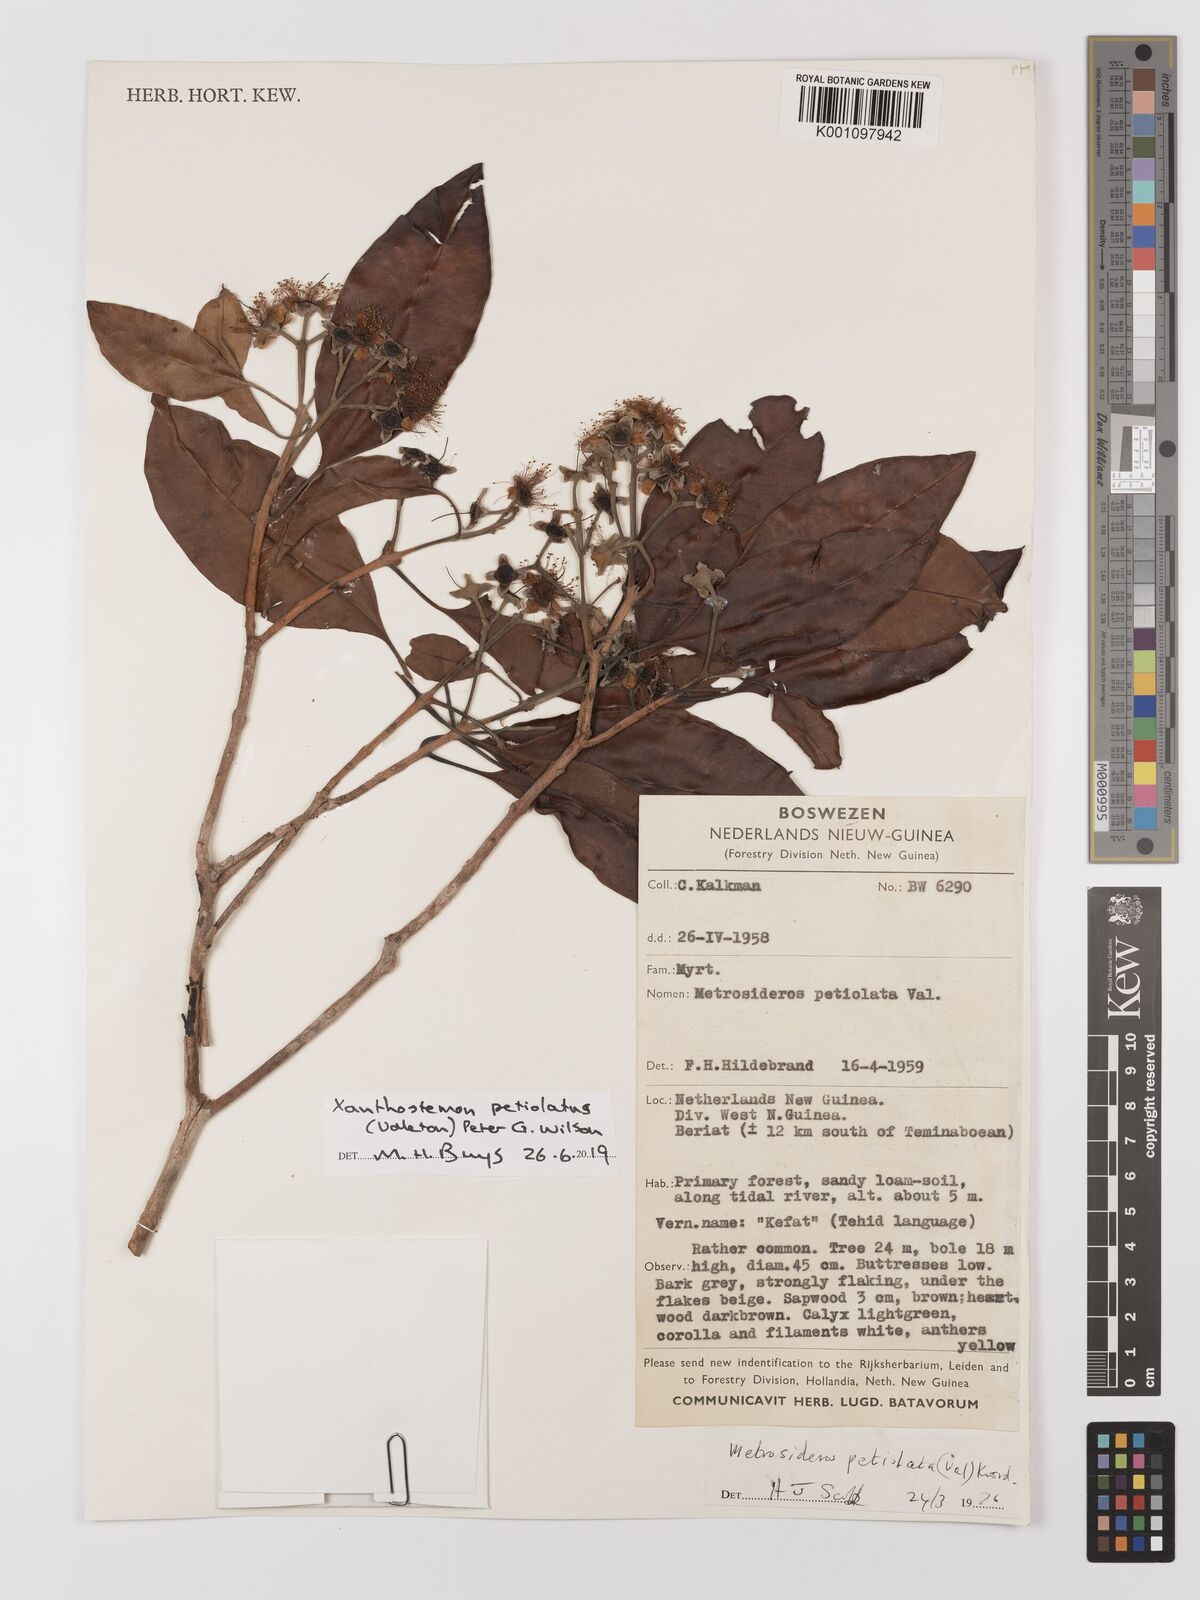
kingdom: Plantae
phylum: Tracheophyta
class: Magnoliopsida
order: Myrtales
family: Myrtaceae
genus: Xanthostemon
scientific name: Xanthostemon petiolatus
